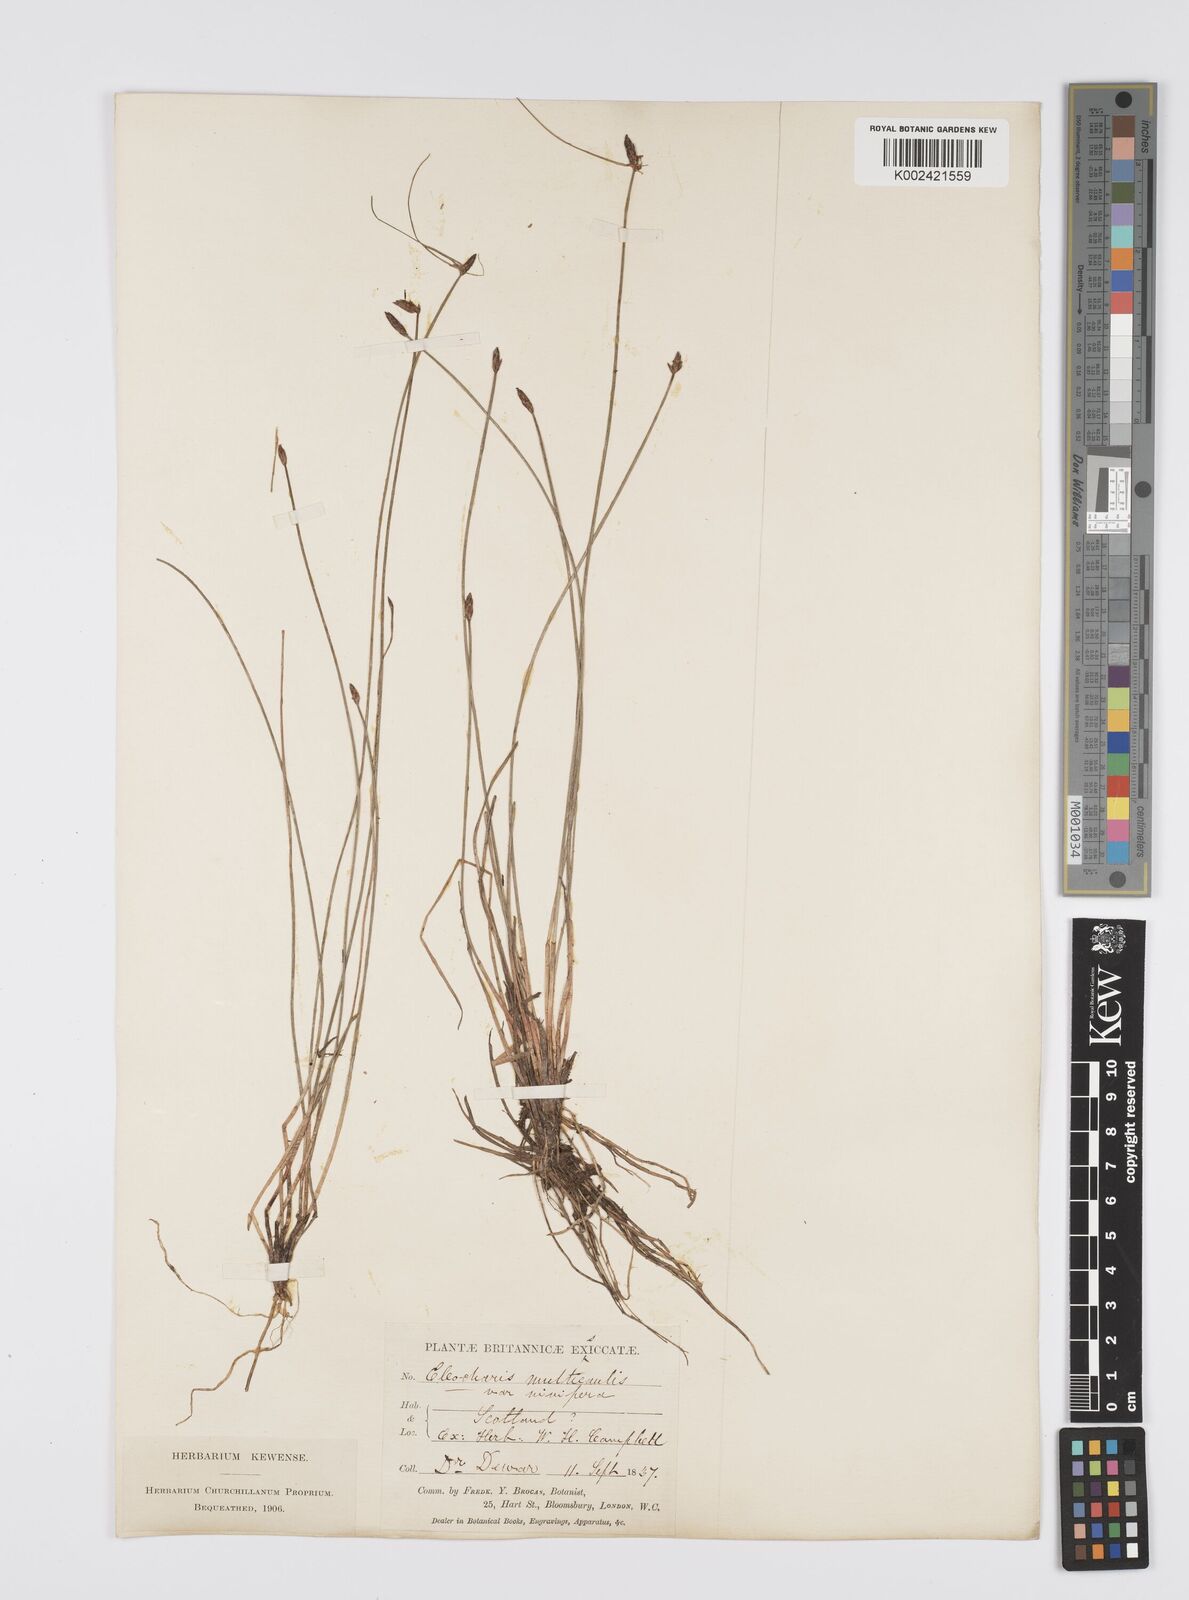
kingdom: Plantae
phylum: Tracheophyta
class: Liliopsida
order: Poales
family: Cyperaceae
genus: Eleocharis
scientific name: Eleocharis multicaulis
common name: Many-stalked spike-rush
